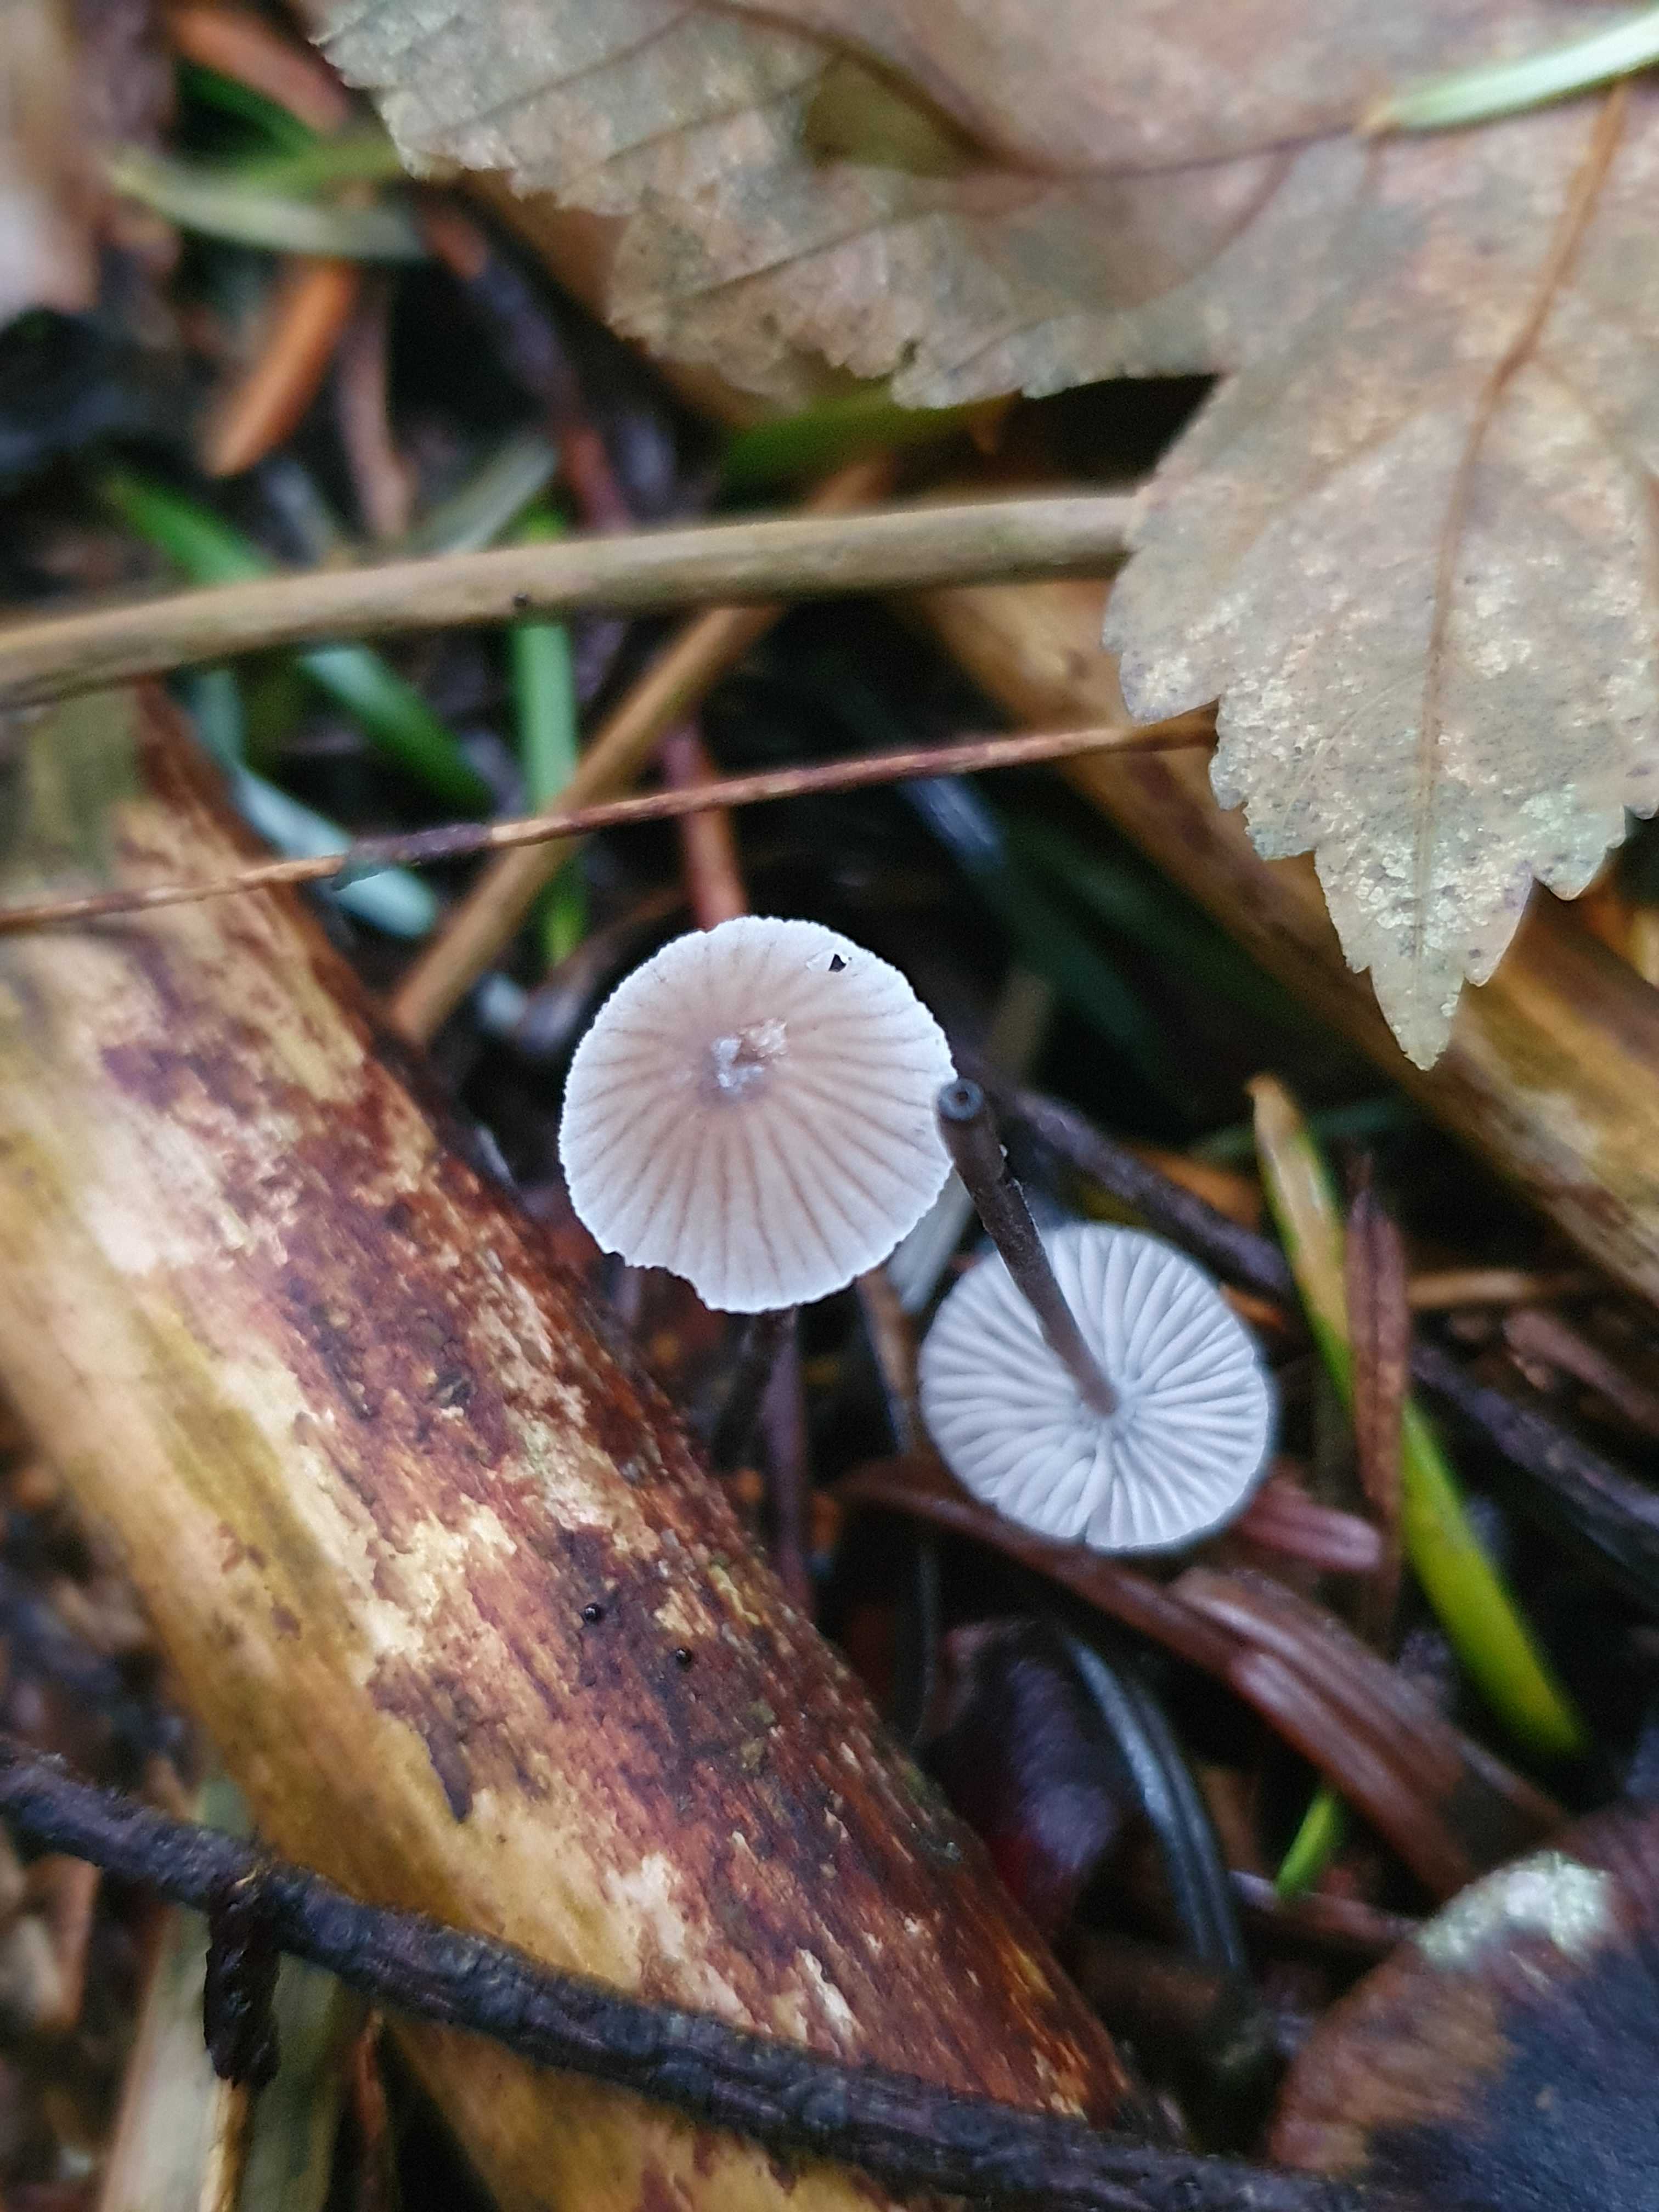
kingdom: Fungi
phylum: Basidiomycota
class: Agaricomycetes
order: Agaricales
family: Mycenaceae
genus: Mycena
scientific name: Mycena leptocephala
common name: klor-huesvamp
